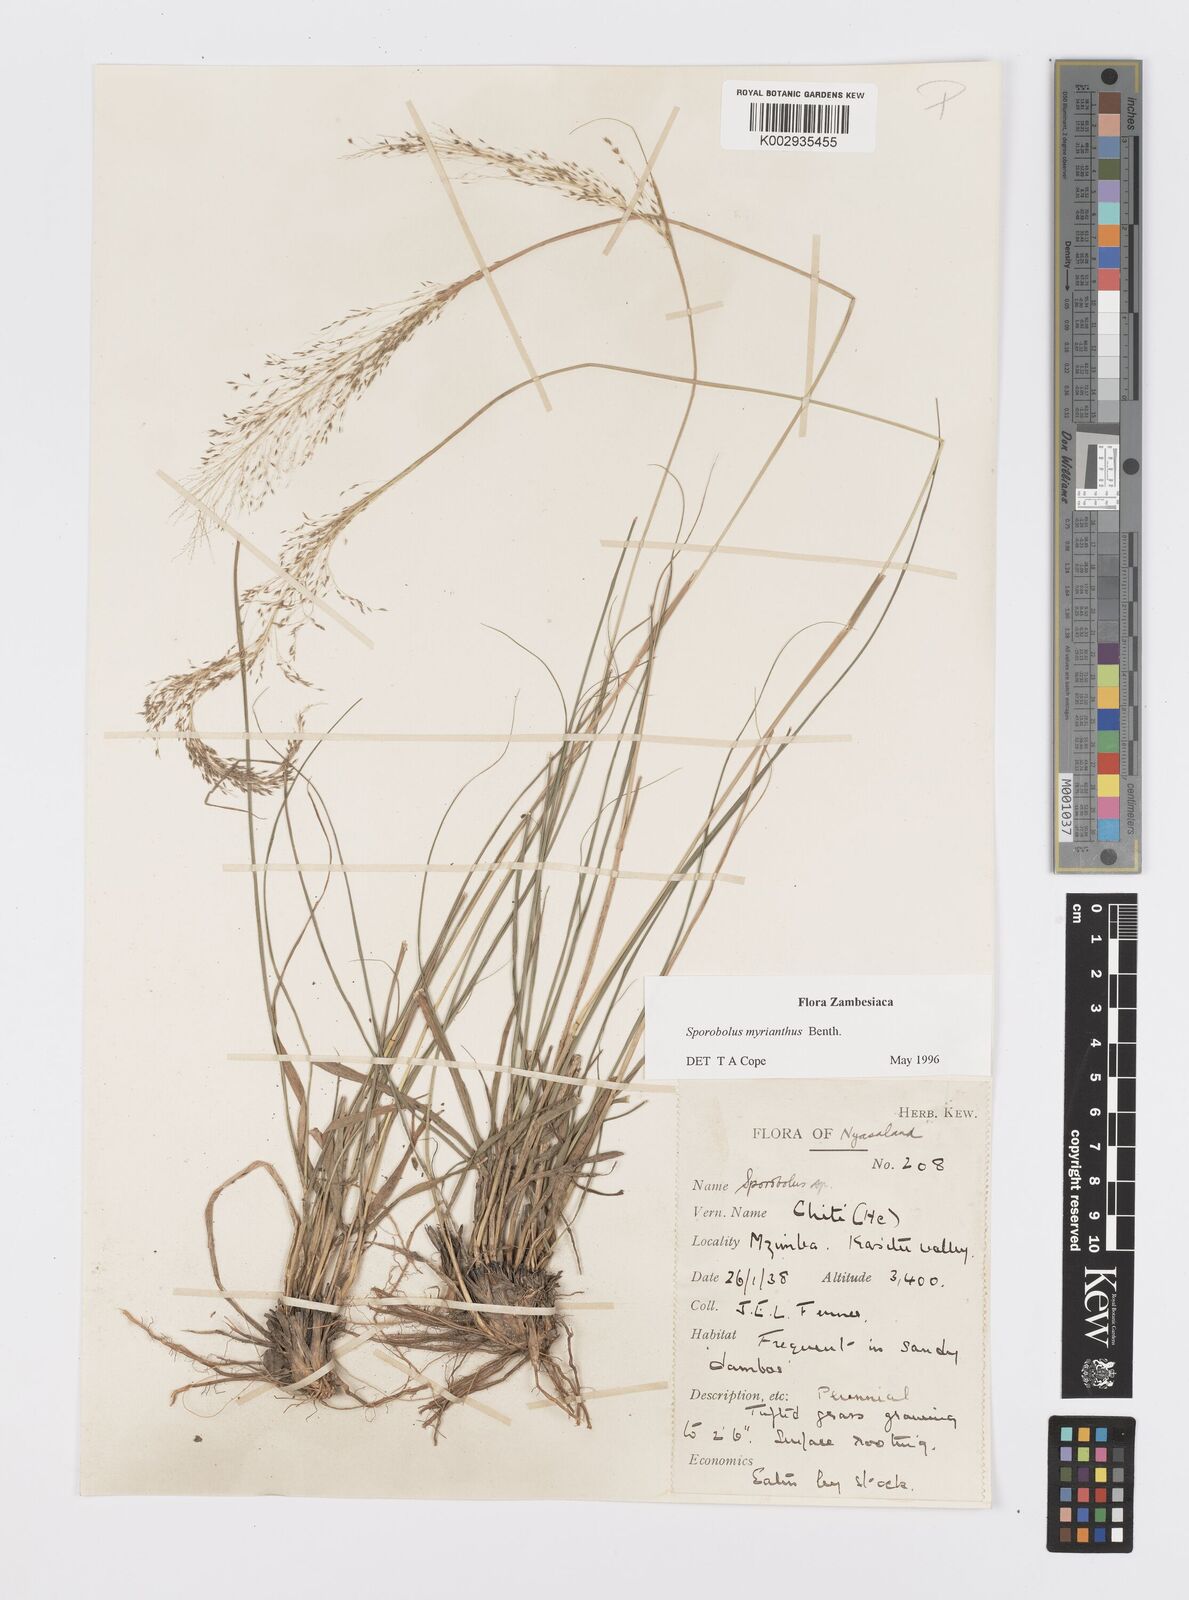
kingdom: Plantae
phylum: Tracheophyta
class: Liliopsida
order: Poales
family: Poaceae
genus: Sporobolus
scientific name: Sporobolus myrianthus
